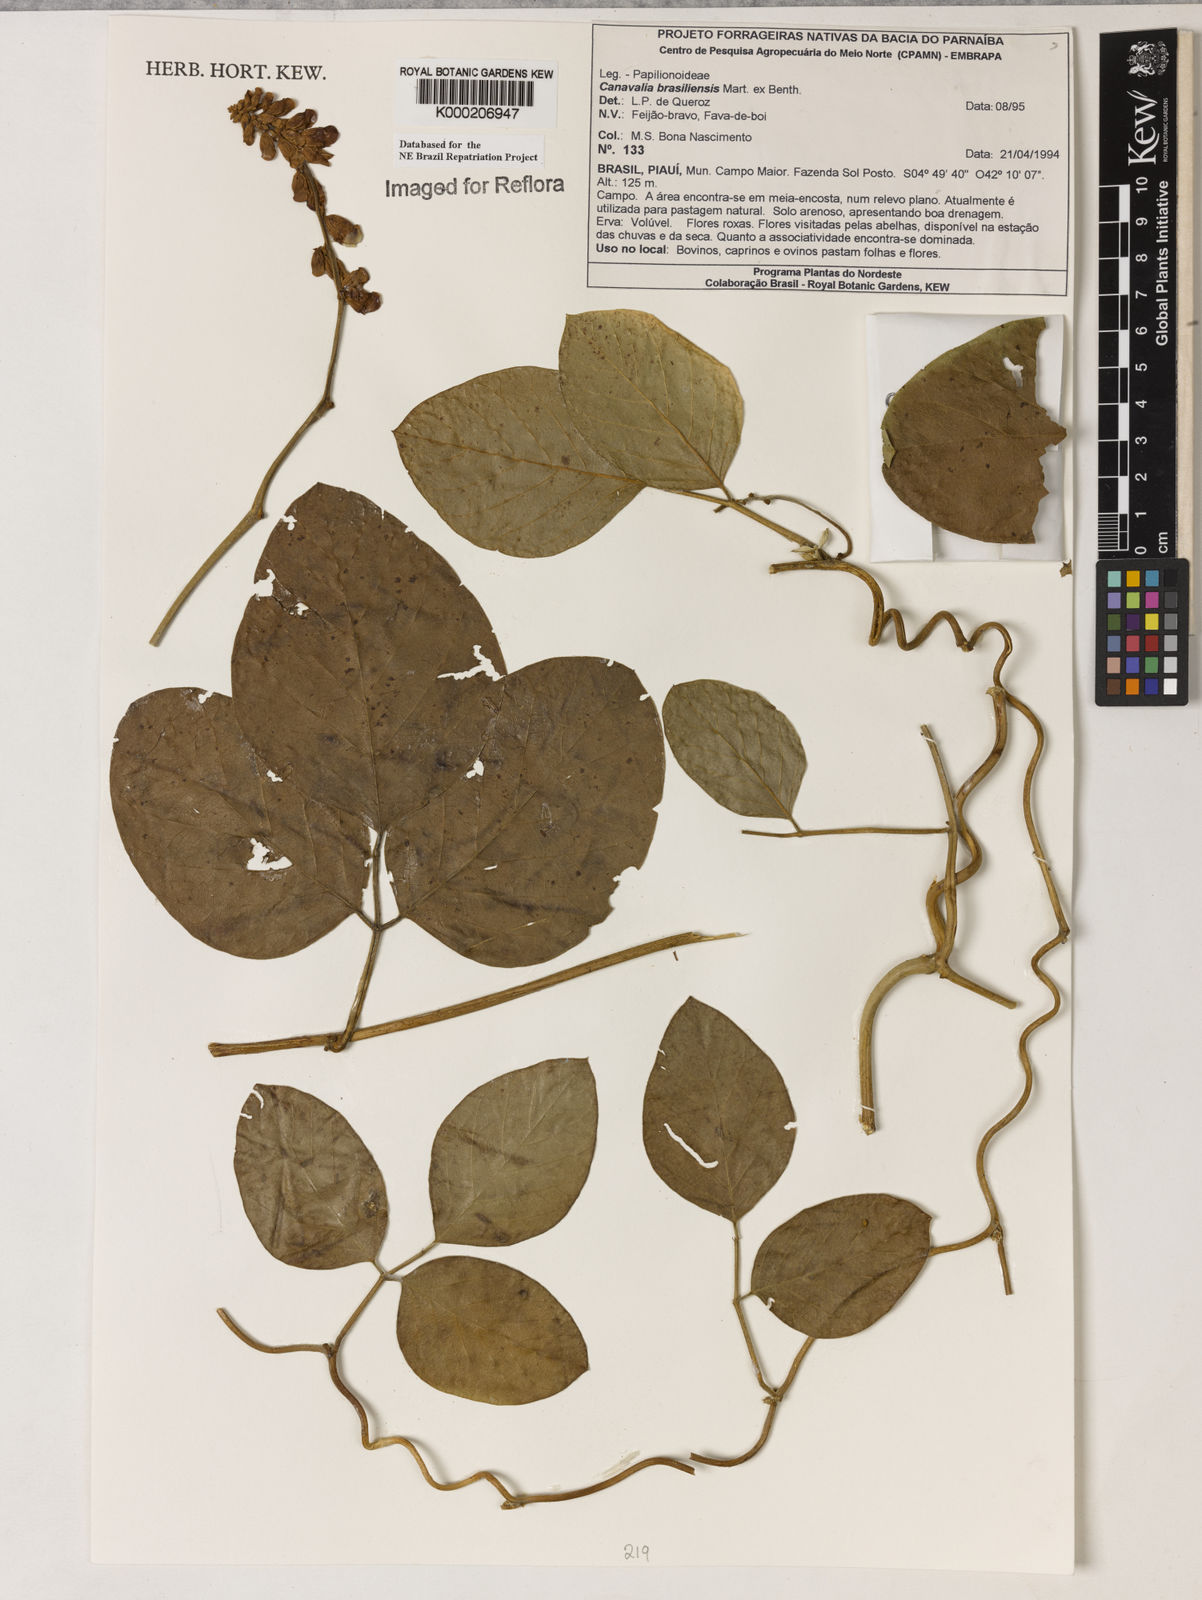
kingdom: Plantae
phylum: Tracheophyta
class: Magnoliopsida
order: Fabales
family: Fabaceae
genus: Canavalia
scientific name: Canavalia brasiliensis
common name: Barbicou-bean
